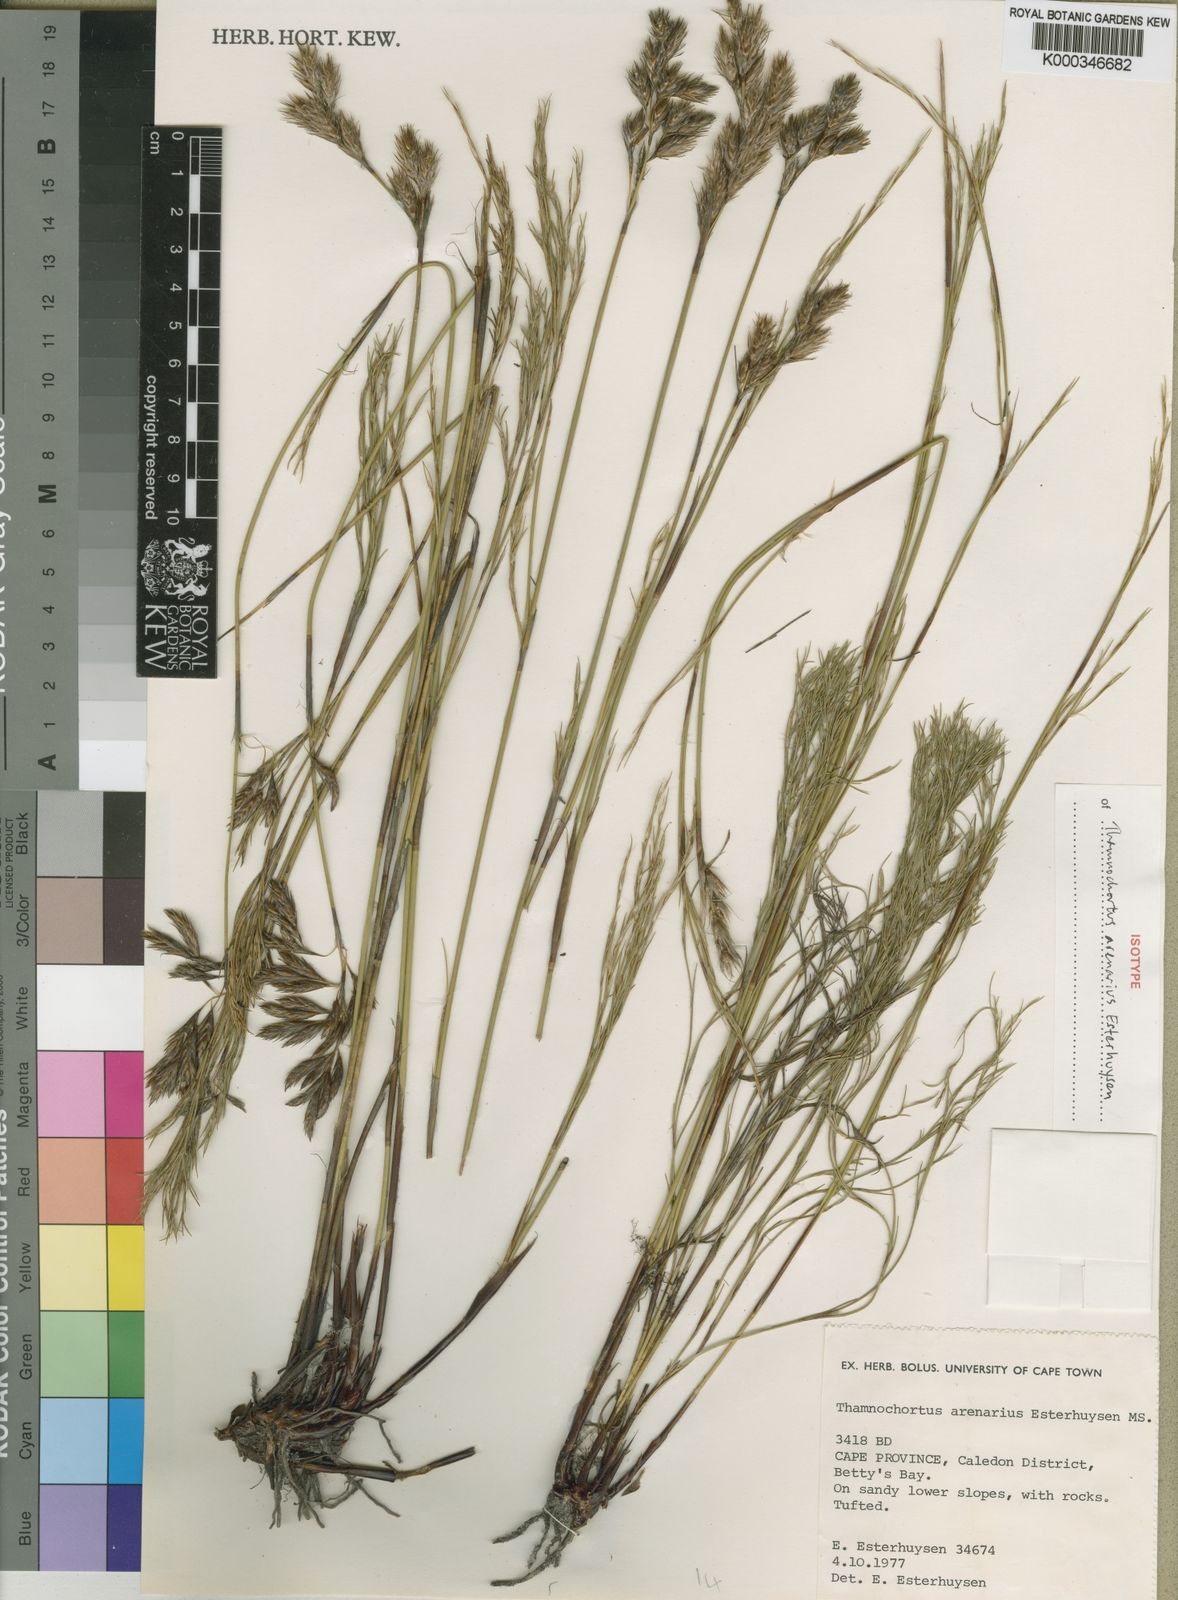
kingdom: Plantae
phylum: Tracheophyta
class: Liliopsida
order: Poales
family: Restionaceae
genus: Thamnochortus
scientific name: Thamnochortus arenarius
